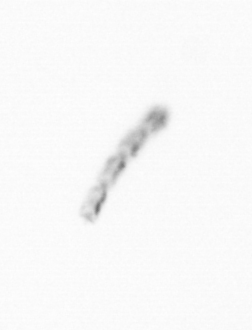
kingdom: Chromista
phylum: Ochrophyta
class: Bacillariophyceae
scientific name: Bacillariophyceae
